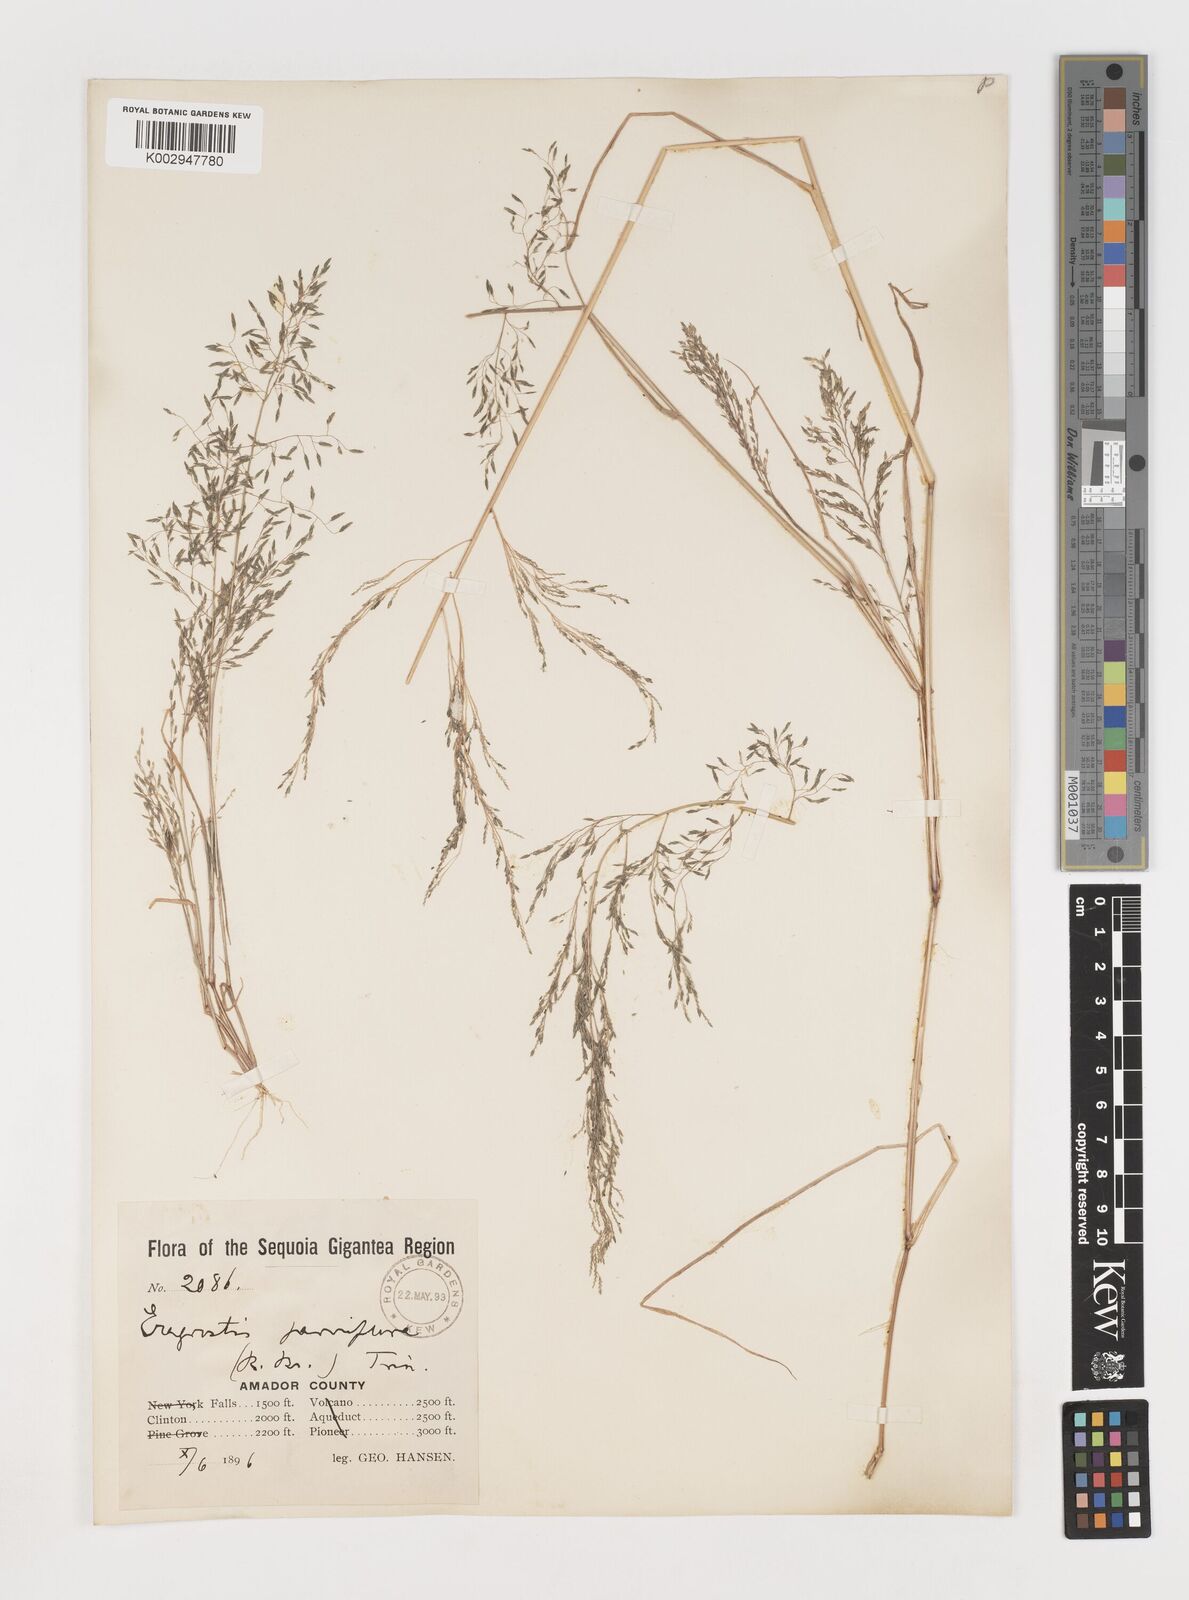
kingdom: Plantae
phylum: Tracheophyta
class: Liliopsida
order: Poales
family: Poaceae
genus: Eragrostis
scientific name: Eragrostis pectinacea
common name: Tufted lovegrass
